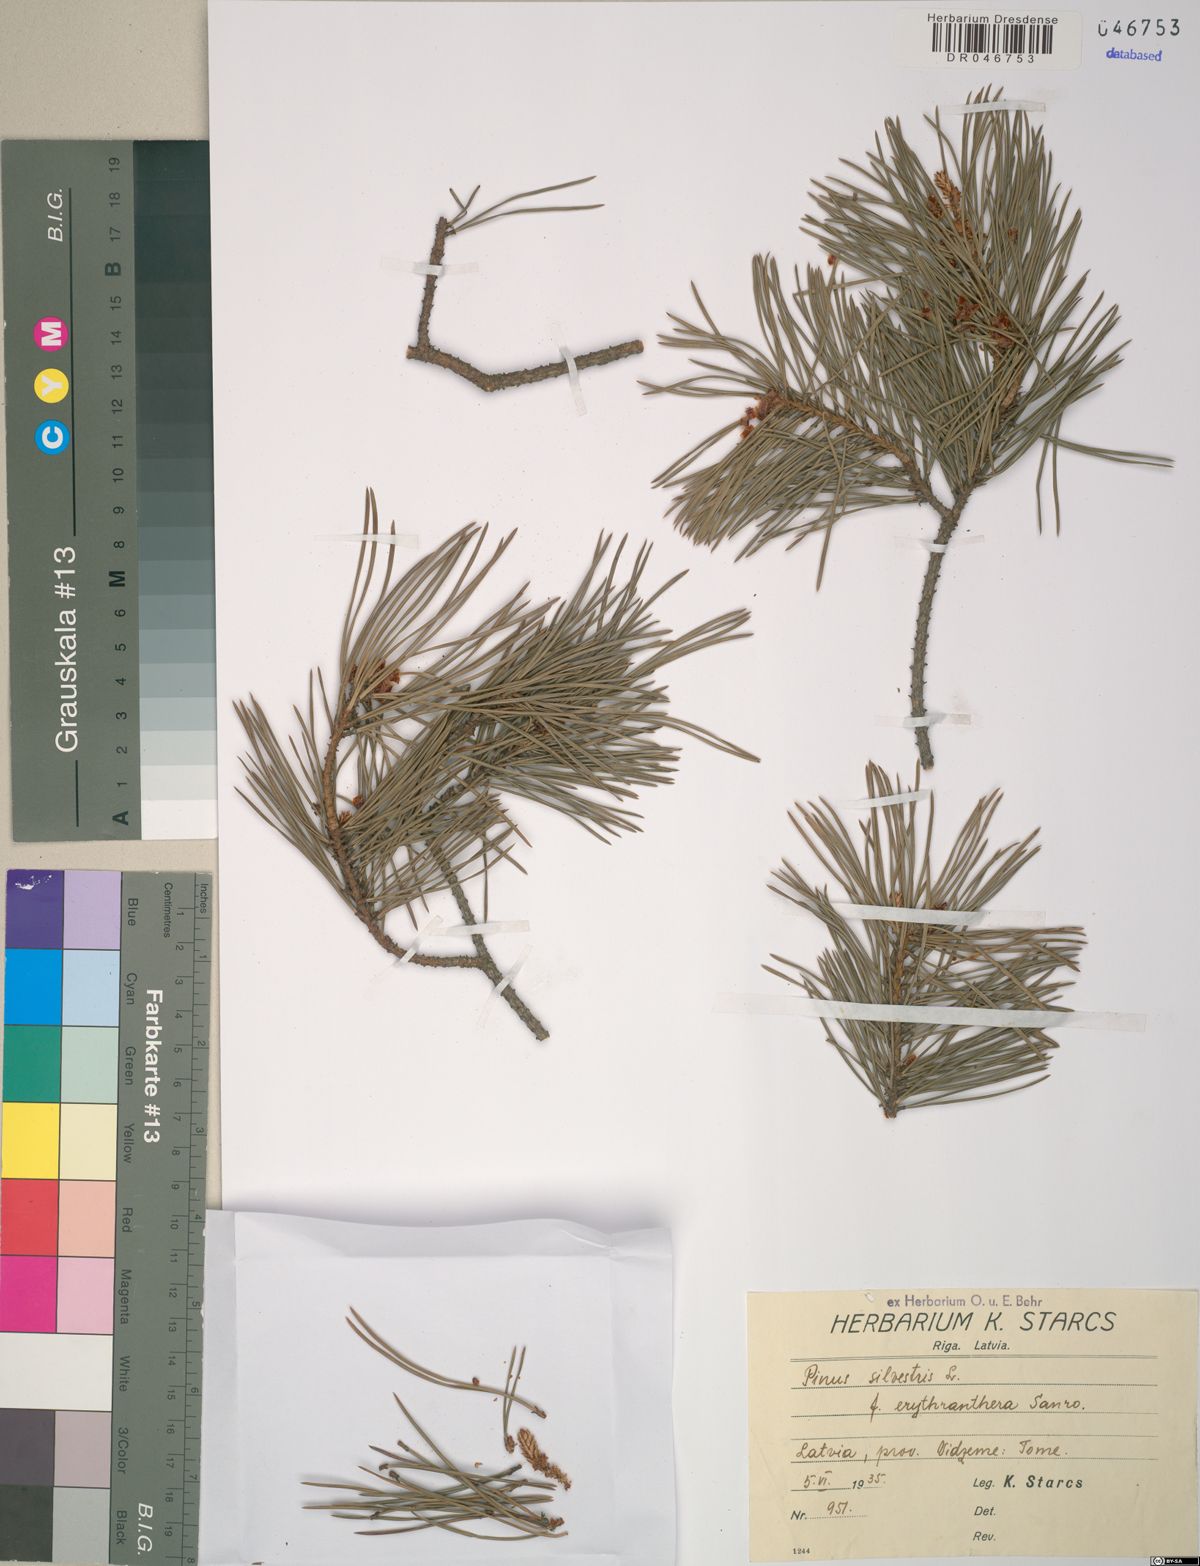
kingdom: Plantae
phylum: Tracheophyta
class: Pinopsida
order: Pinales
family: Pinaceae
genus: Pinus
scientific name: Pinus sylvestris
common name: Scots pine
